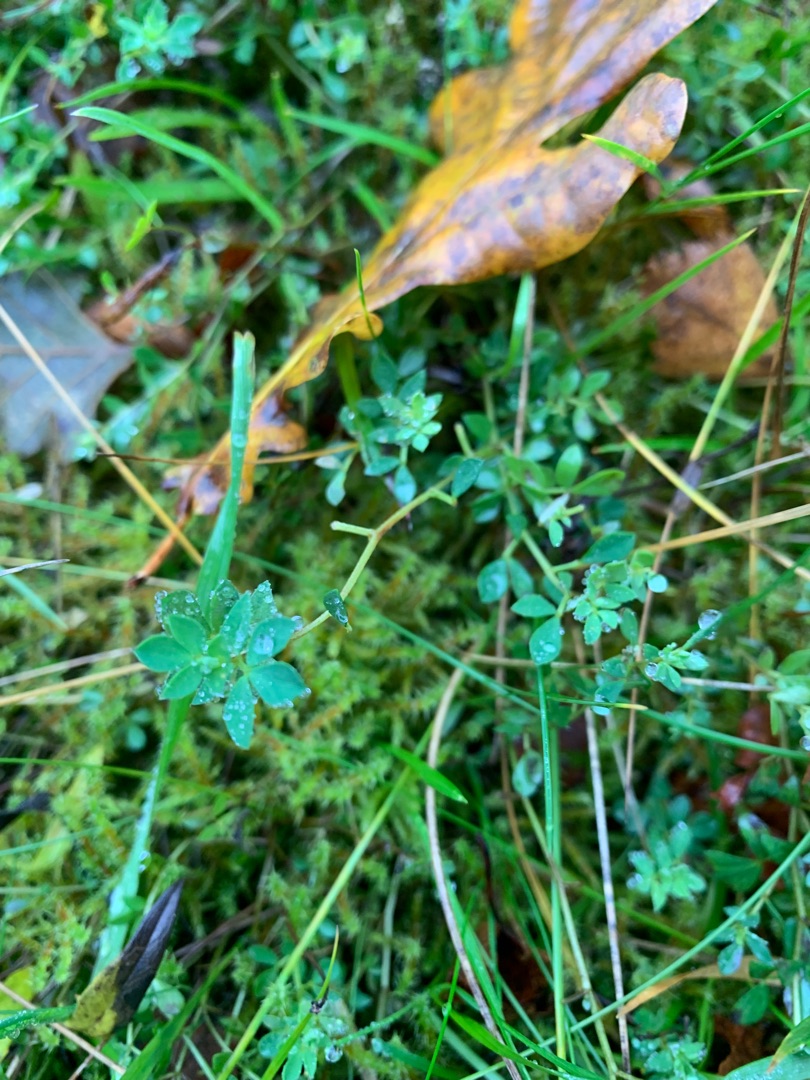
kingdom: Plantae
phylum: Tracheophyta
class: Magnoliopsida
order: Fabales
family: Fabaceae
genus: Lotus
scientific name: Lotus corniculatus
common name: Almindelig kællingetand
